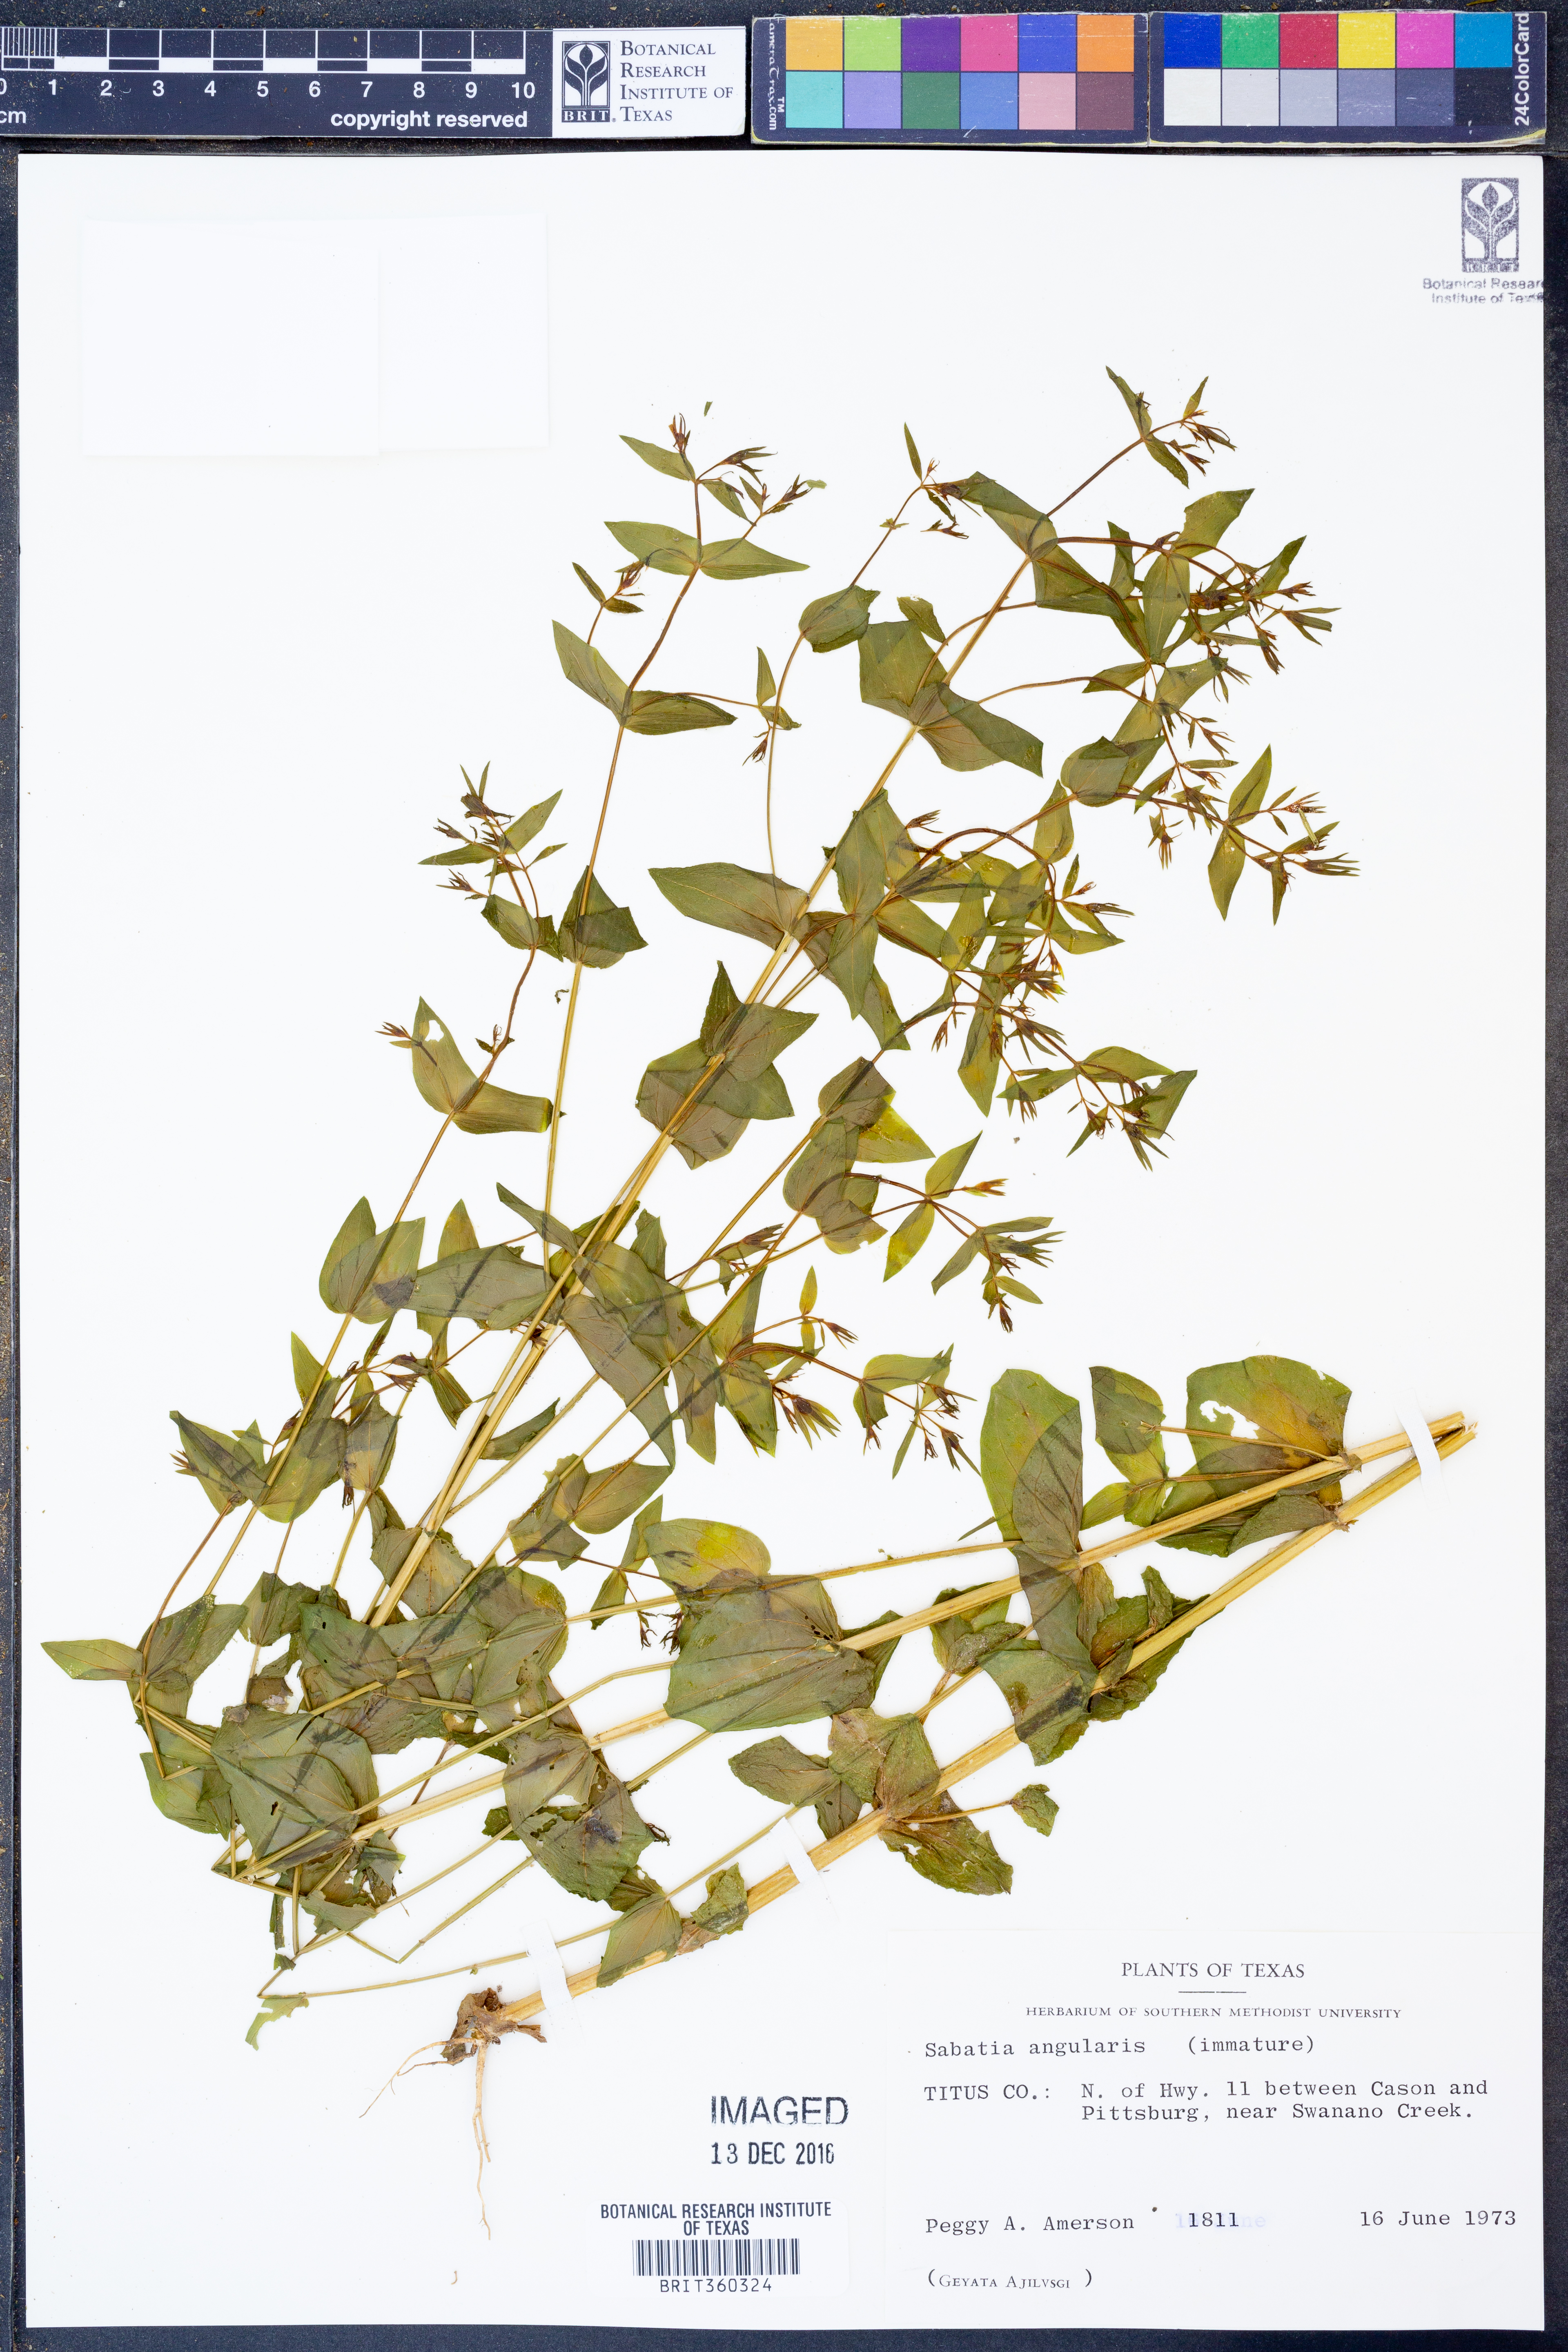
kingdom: Plantae
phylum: Tracheophyta
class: Magnoliopsida
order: Gentianales
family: Gentianaceae
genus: Sabatia
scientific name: Sabatia angularis
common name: Rose-pink
